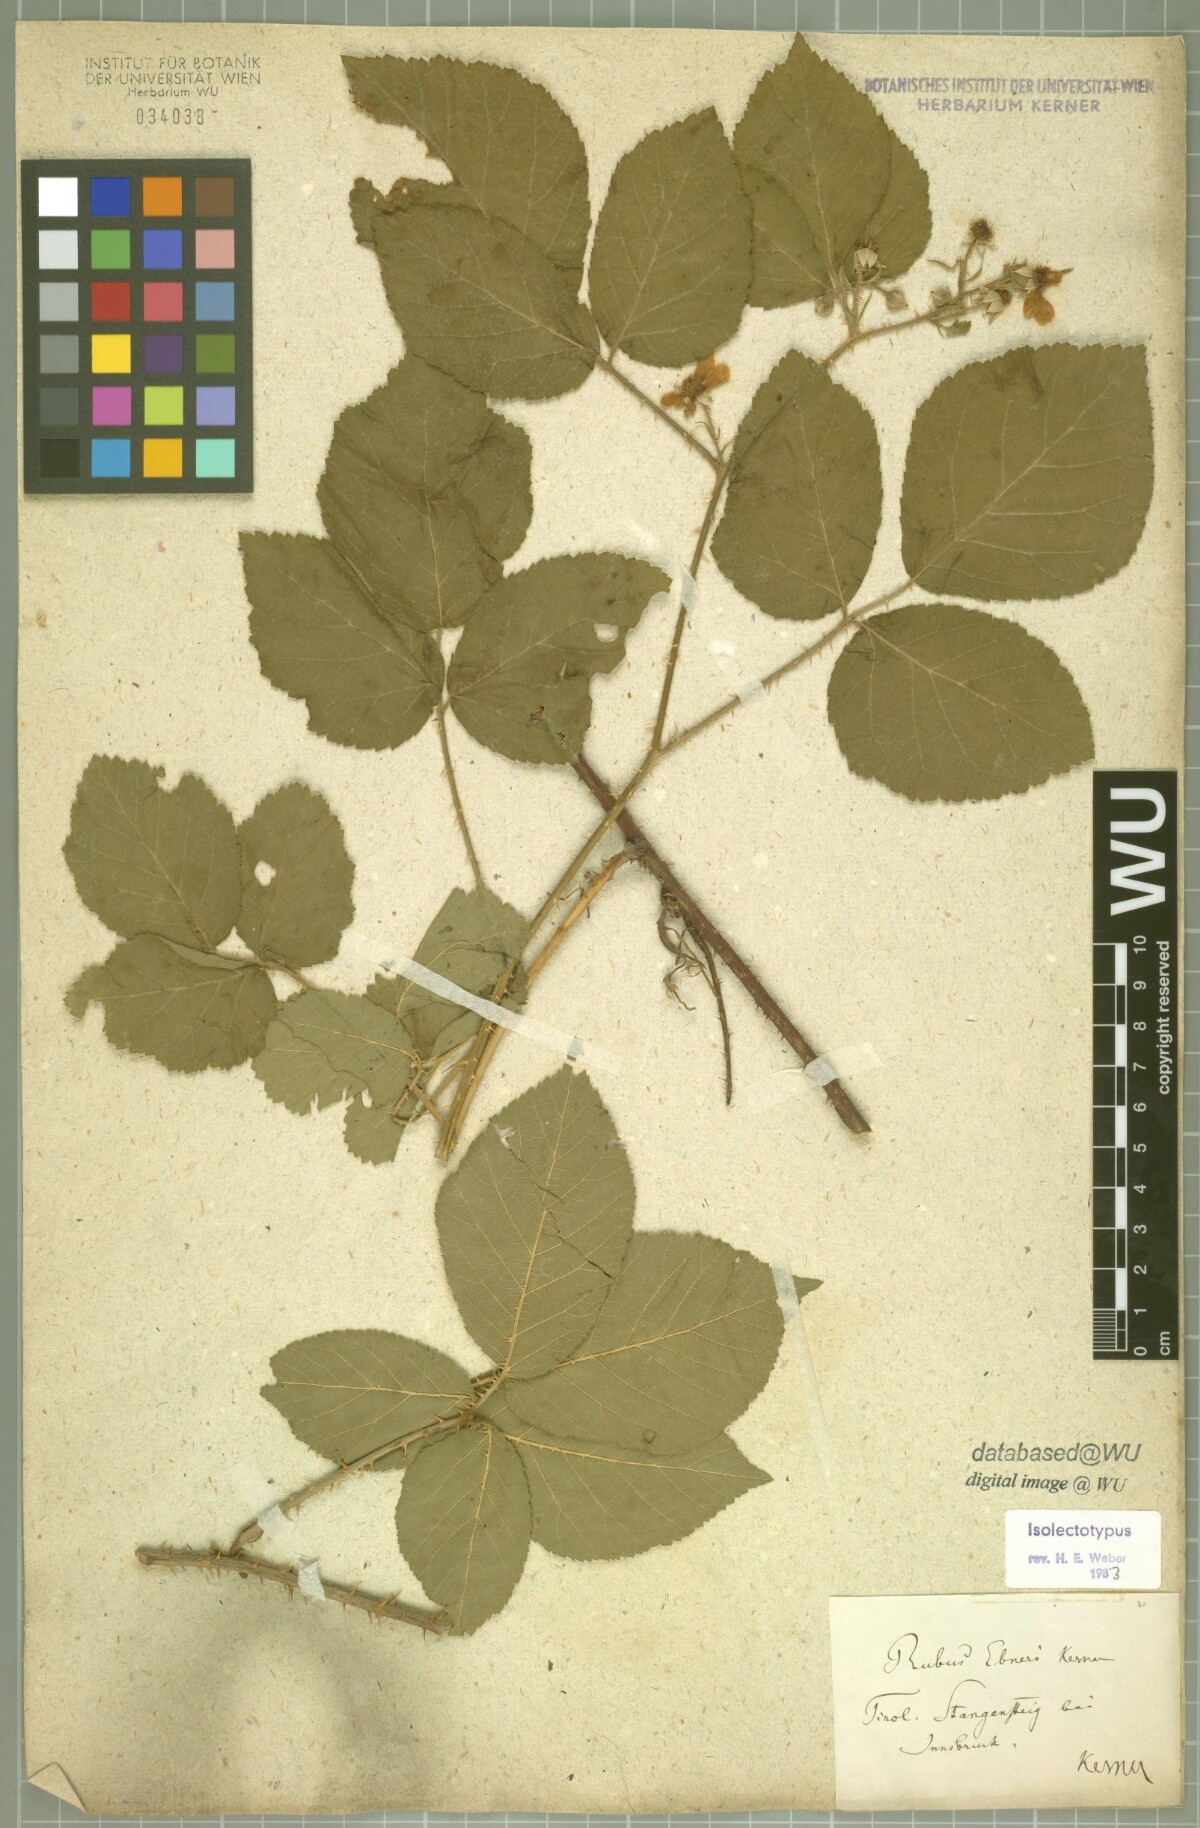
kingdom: Plantae
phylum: Tracheophyta
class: Magnoliopsida
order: Rosales
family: Rosaceae
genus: Rubus
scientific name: Rubus ebneri
